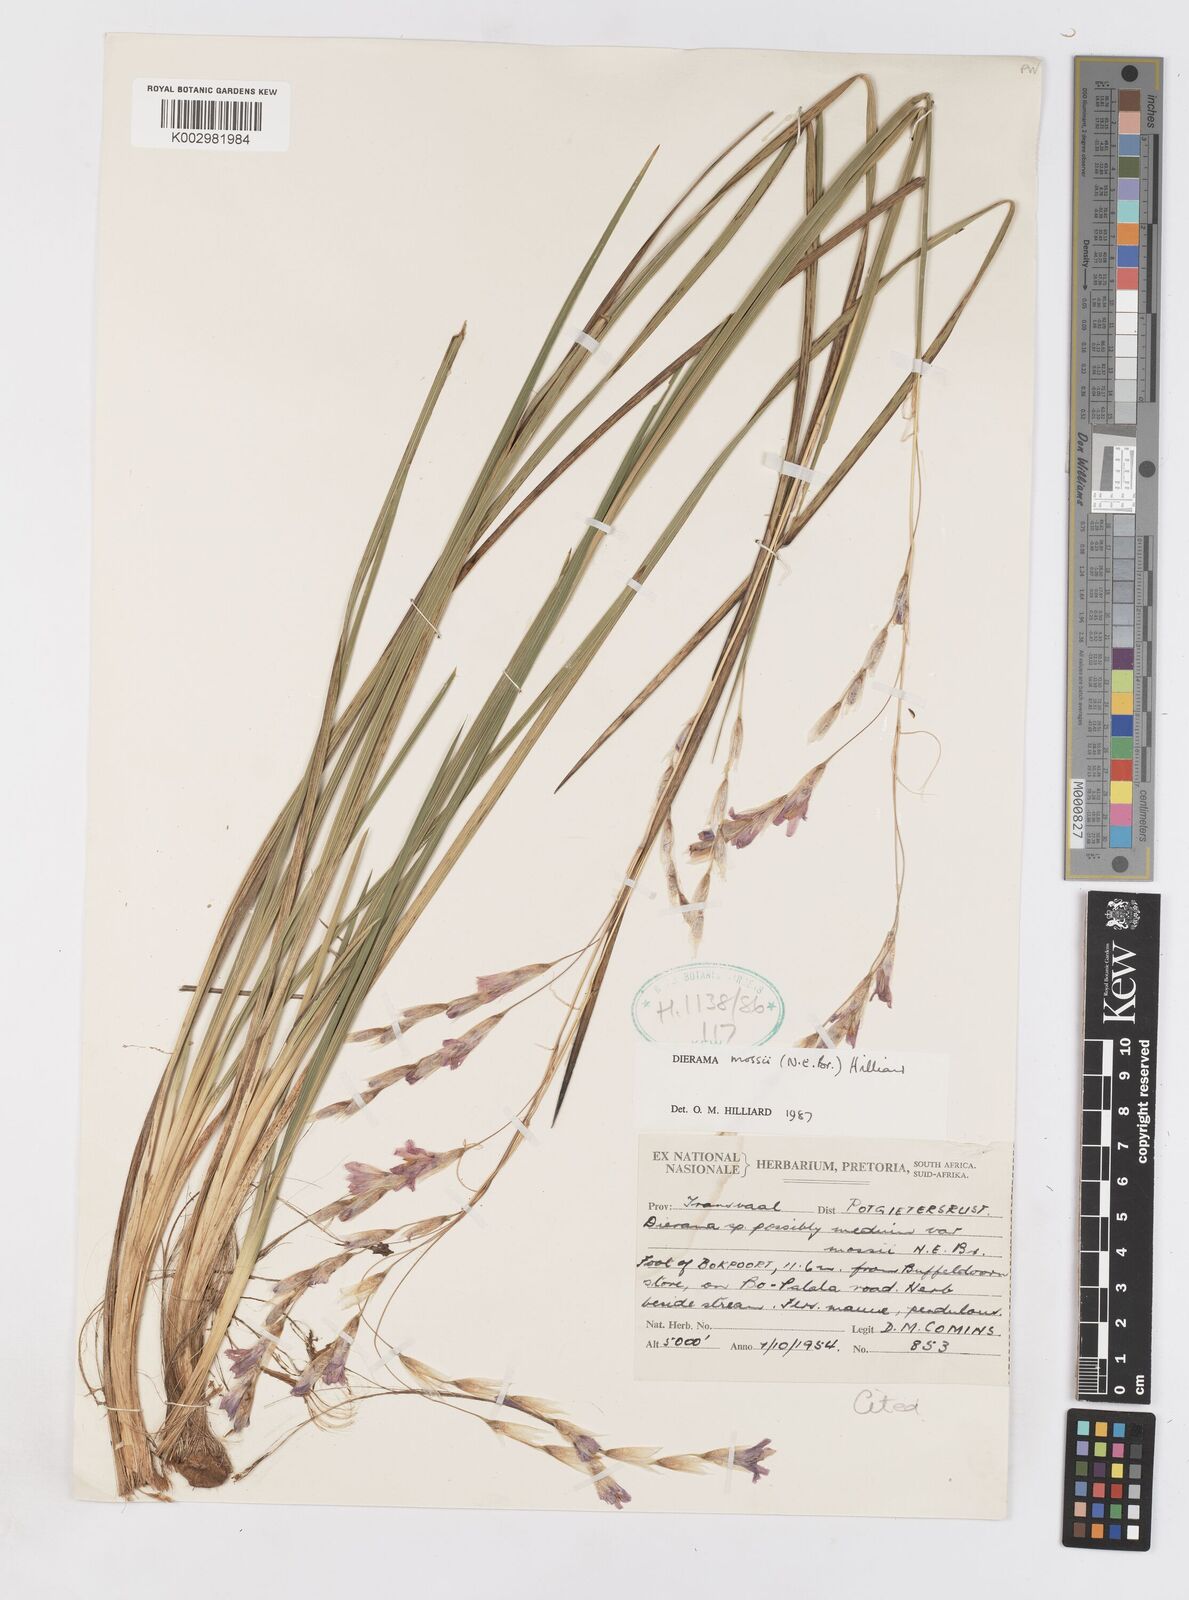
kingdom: Plantae
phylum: Tracheophyta
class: Liliopsida
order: Asparagales
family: Iridaceae
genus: Dierama
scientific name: Dierama mossii
